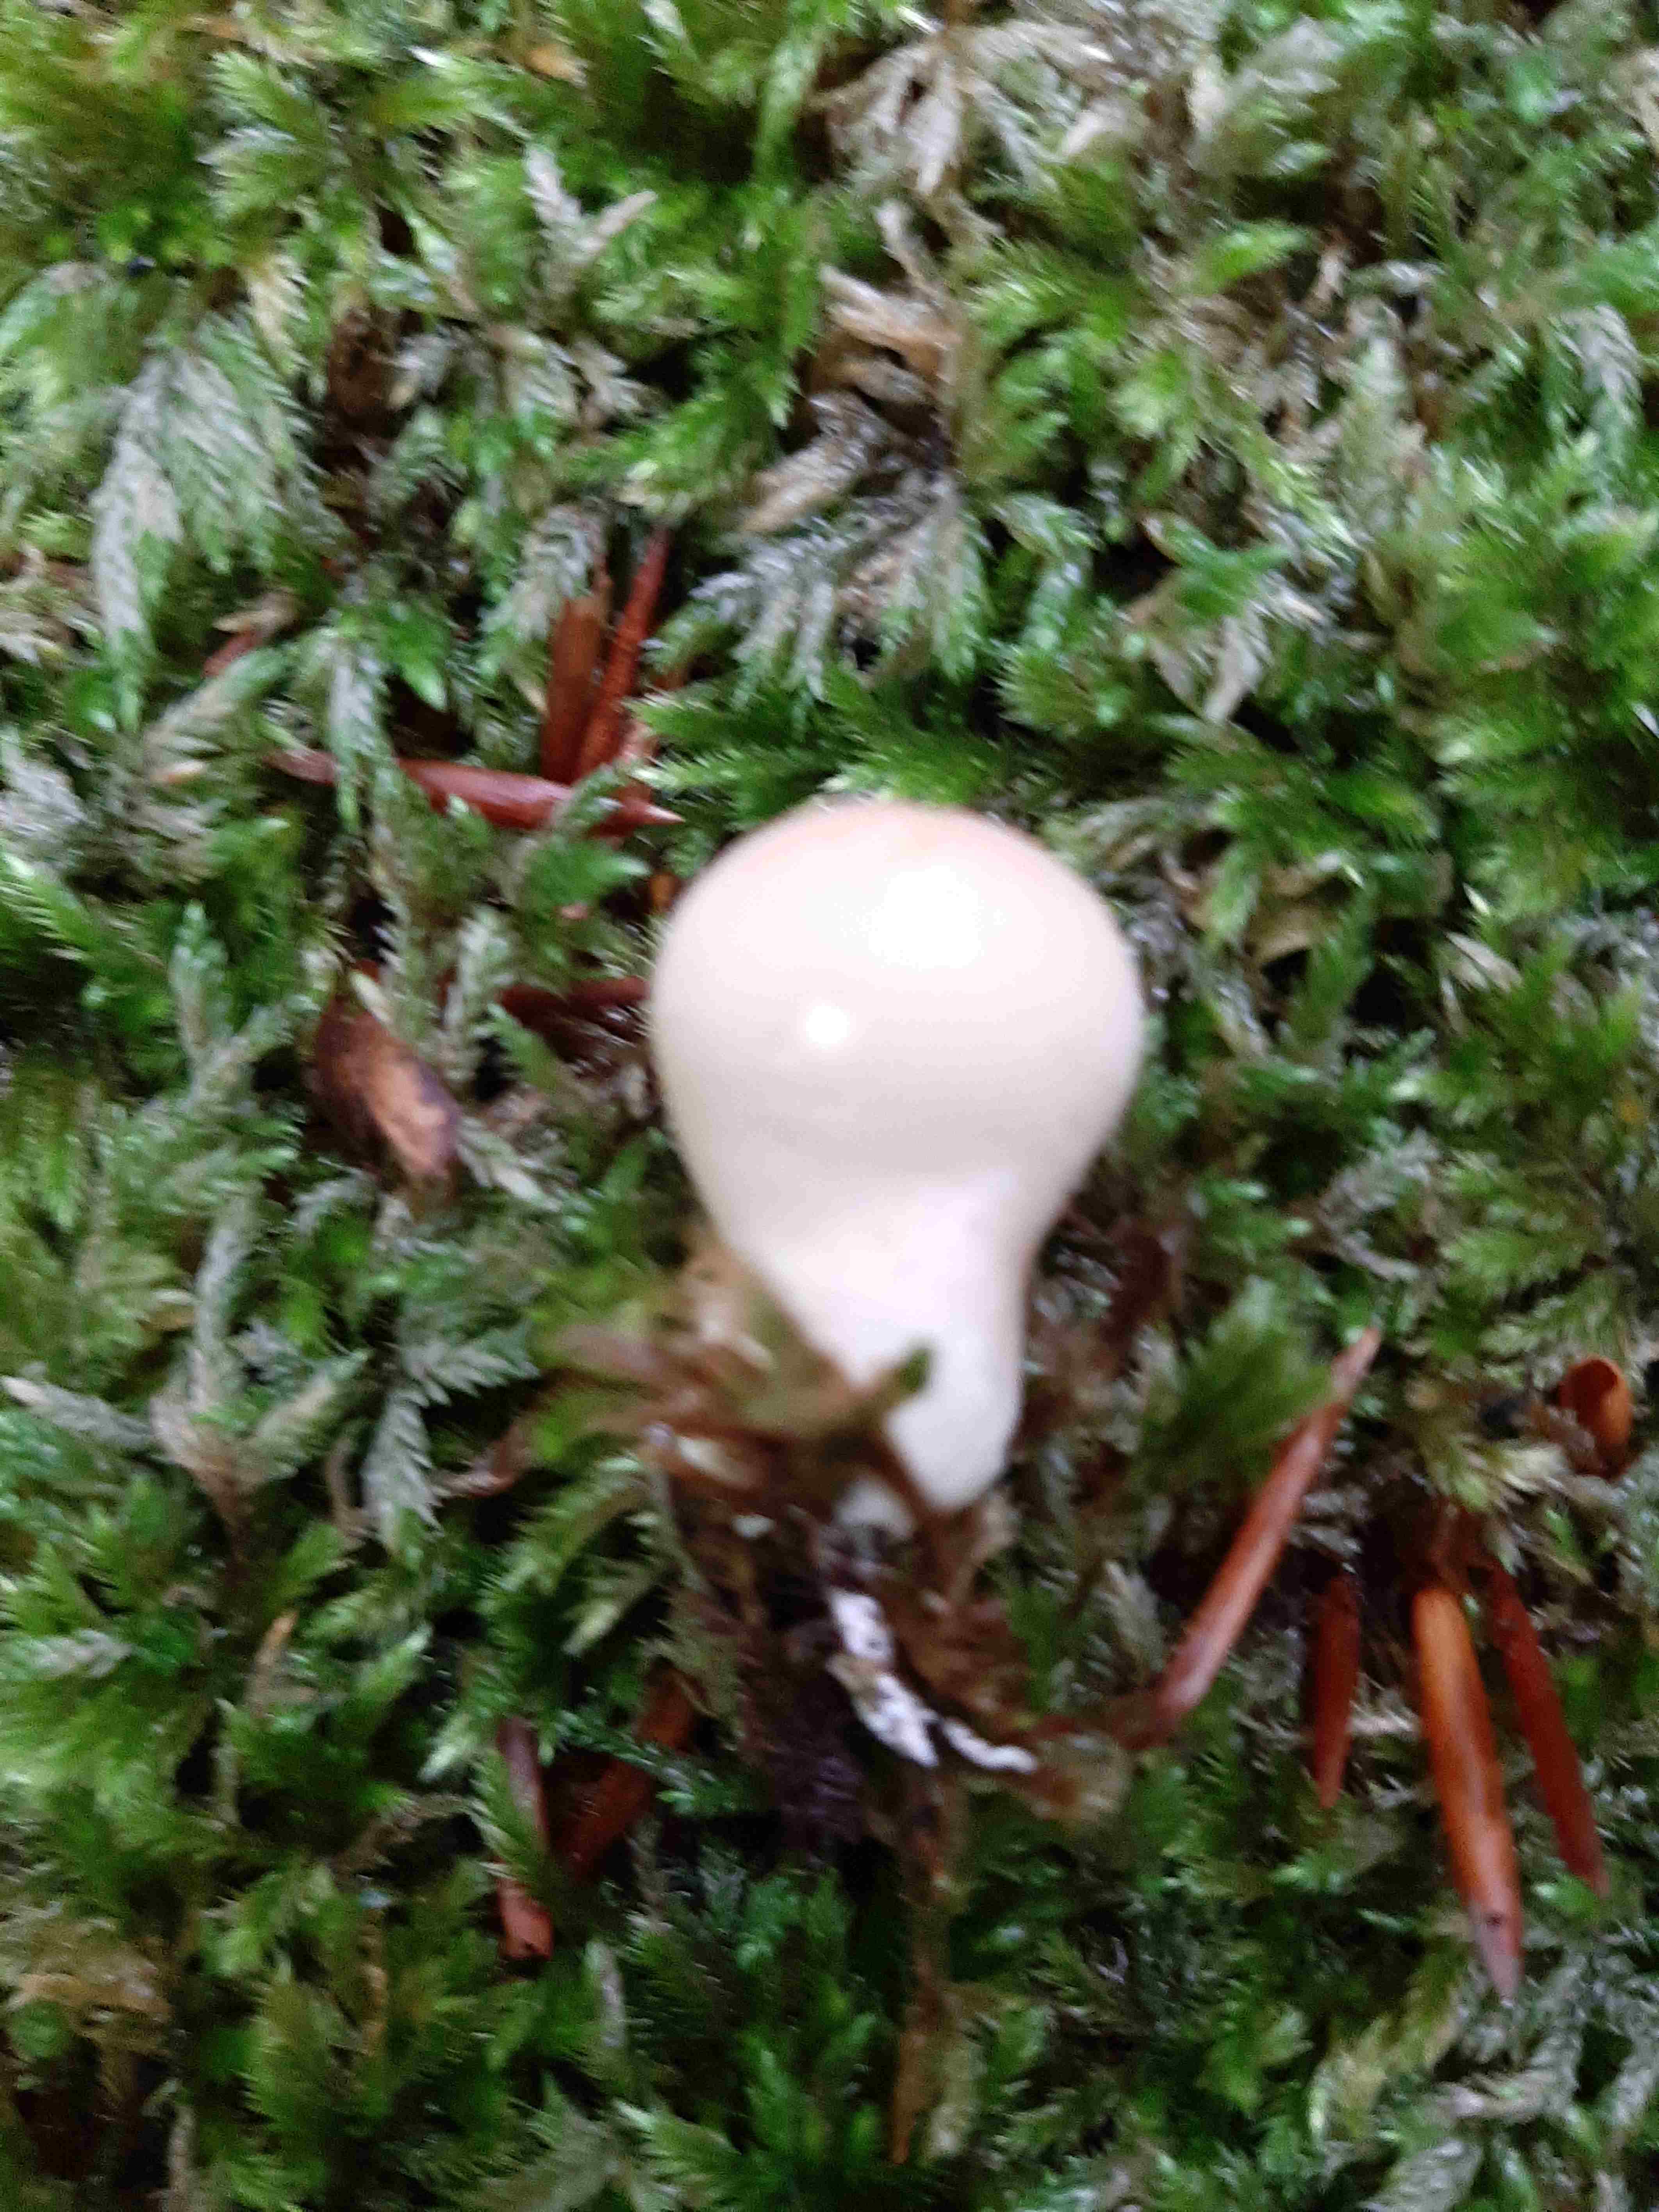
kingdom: Fungi
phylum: Basidiomycota
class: Agaricomycetes
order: Agaricales
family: Lycoperdaceae
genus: Apioperdon
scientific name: Apioperdon pyriforme
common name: pære-støvbold
